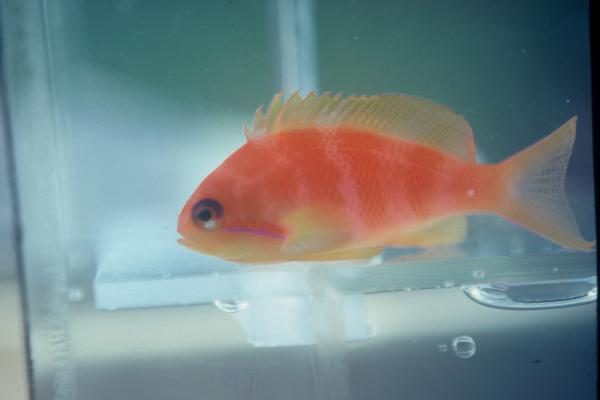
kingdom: Animalia
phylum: Chordata
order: Perciformes
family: Serranidae
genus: Pseudanthias
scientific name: Pseudanthias squamipinnis
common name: Scalefin anthias
